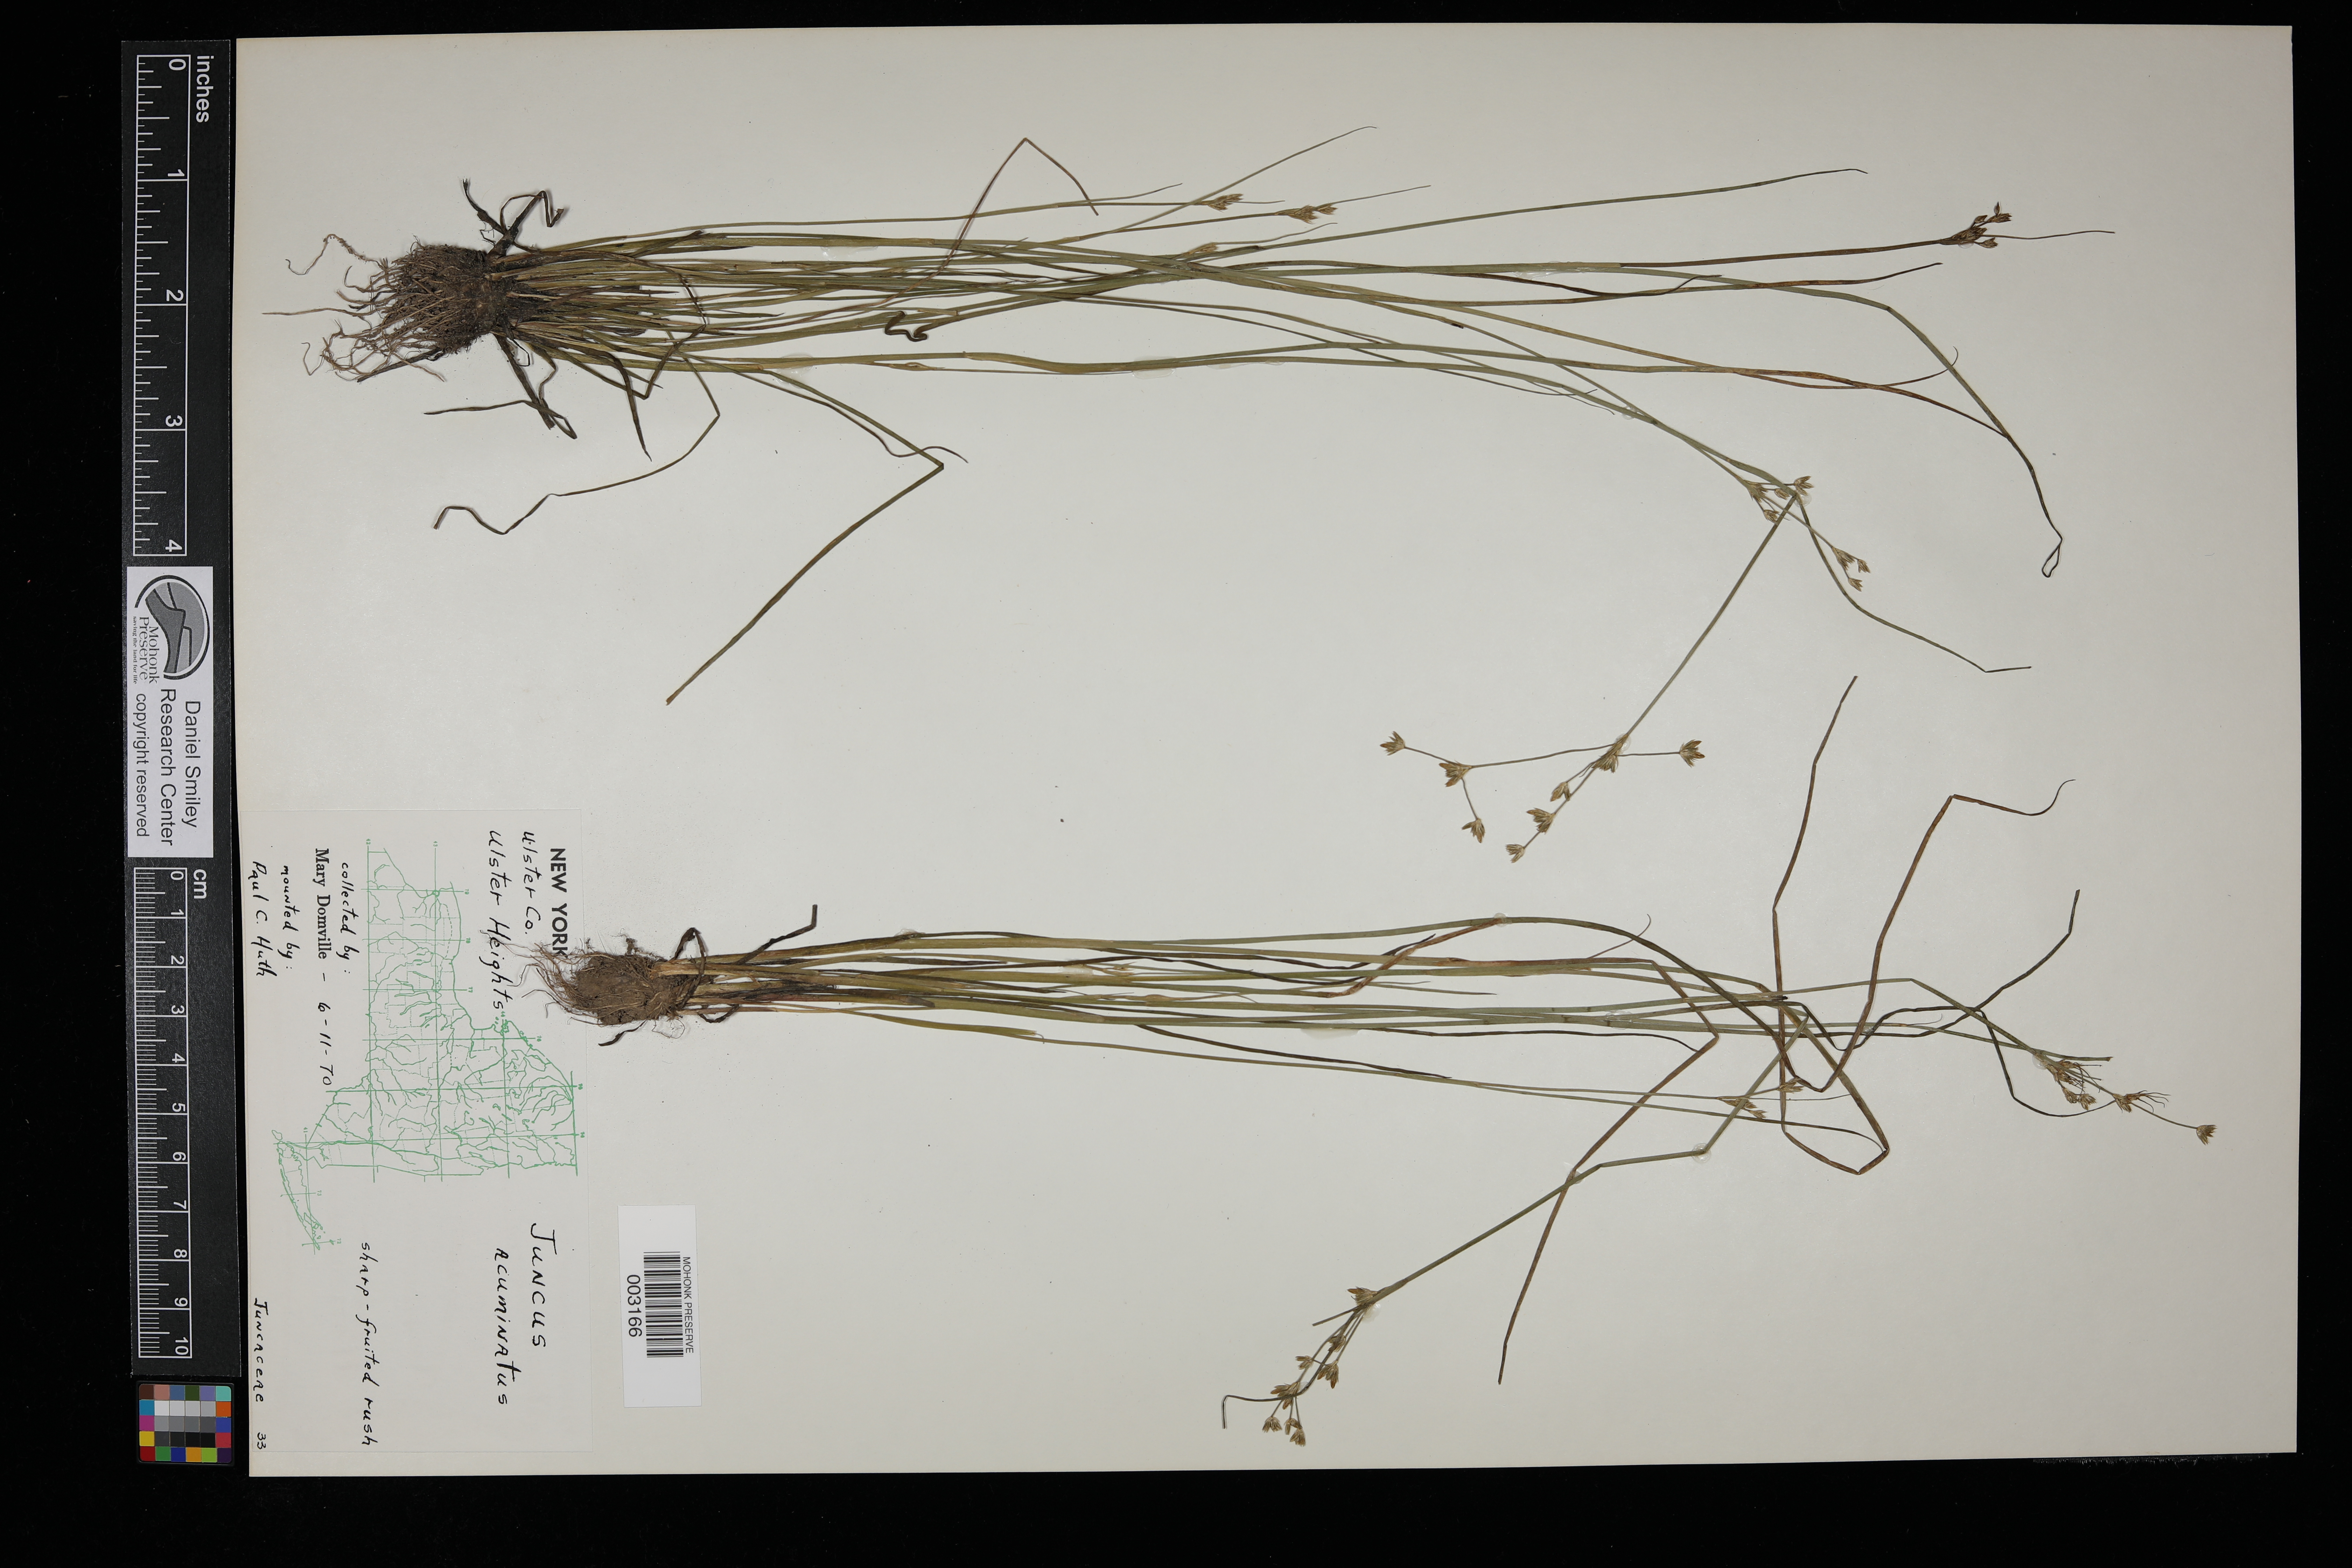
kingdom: Plantae
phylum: Tracheophyta
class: Liliopsida
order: Poales
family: Juncaceae
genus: Juncus
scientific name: Juncus acuminatus
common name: Knotty-leaved rush
